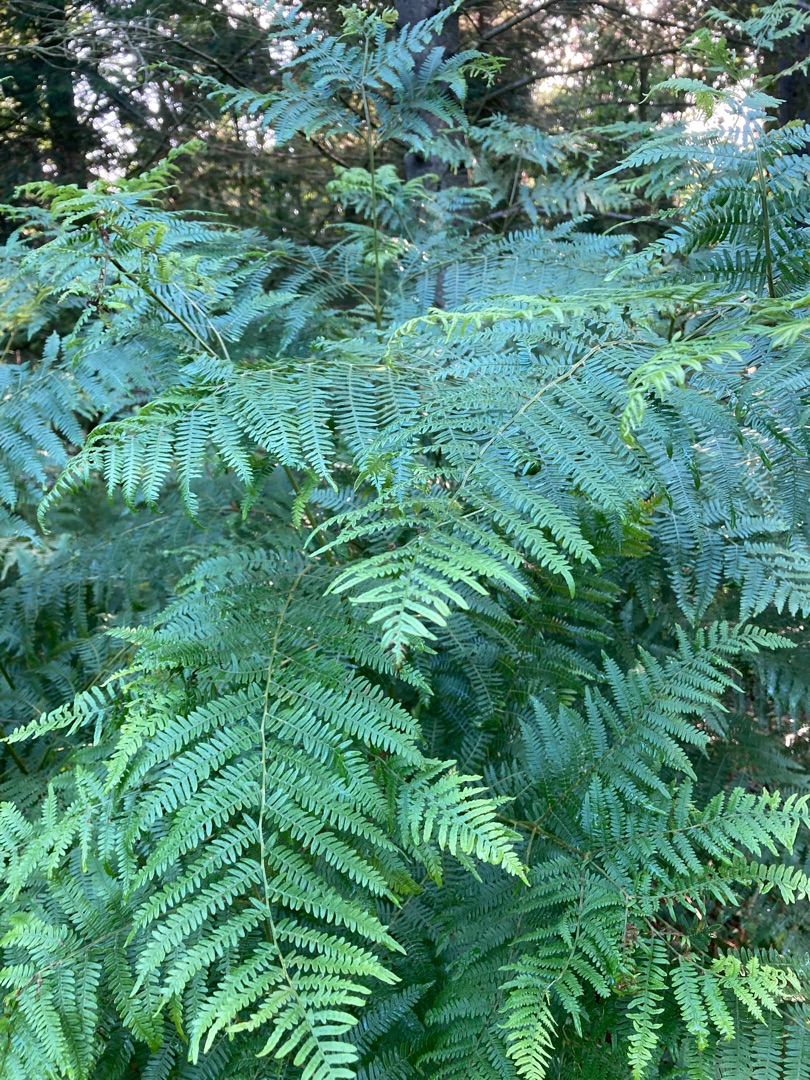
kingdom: Plantae
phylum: Tracheophyta
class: Polypodiopsida
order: Polypodiales
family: Dennstaedtiaceae
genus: Pteridium
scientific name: Pteridium aquilinum
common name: Ørnebregne
